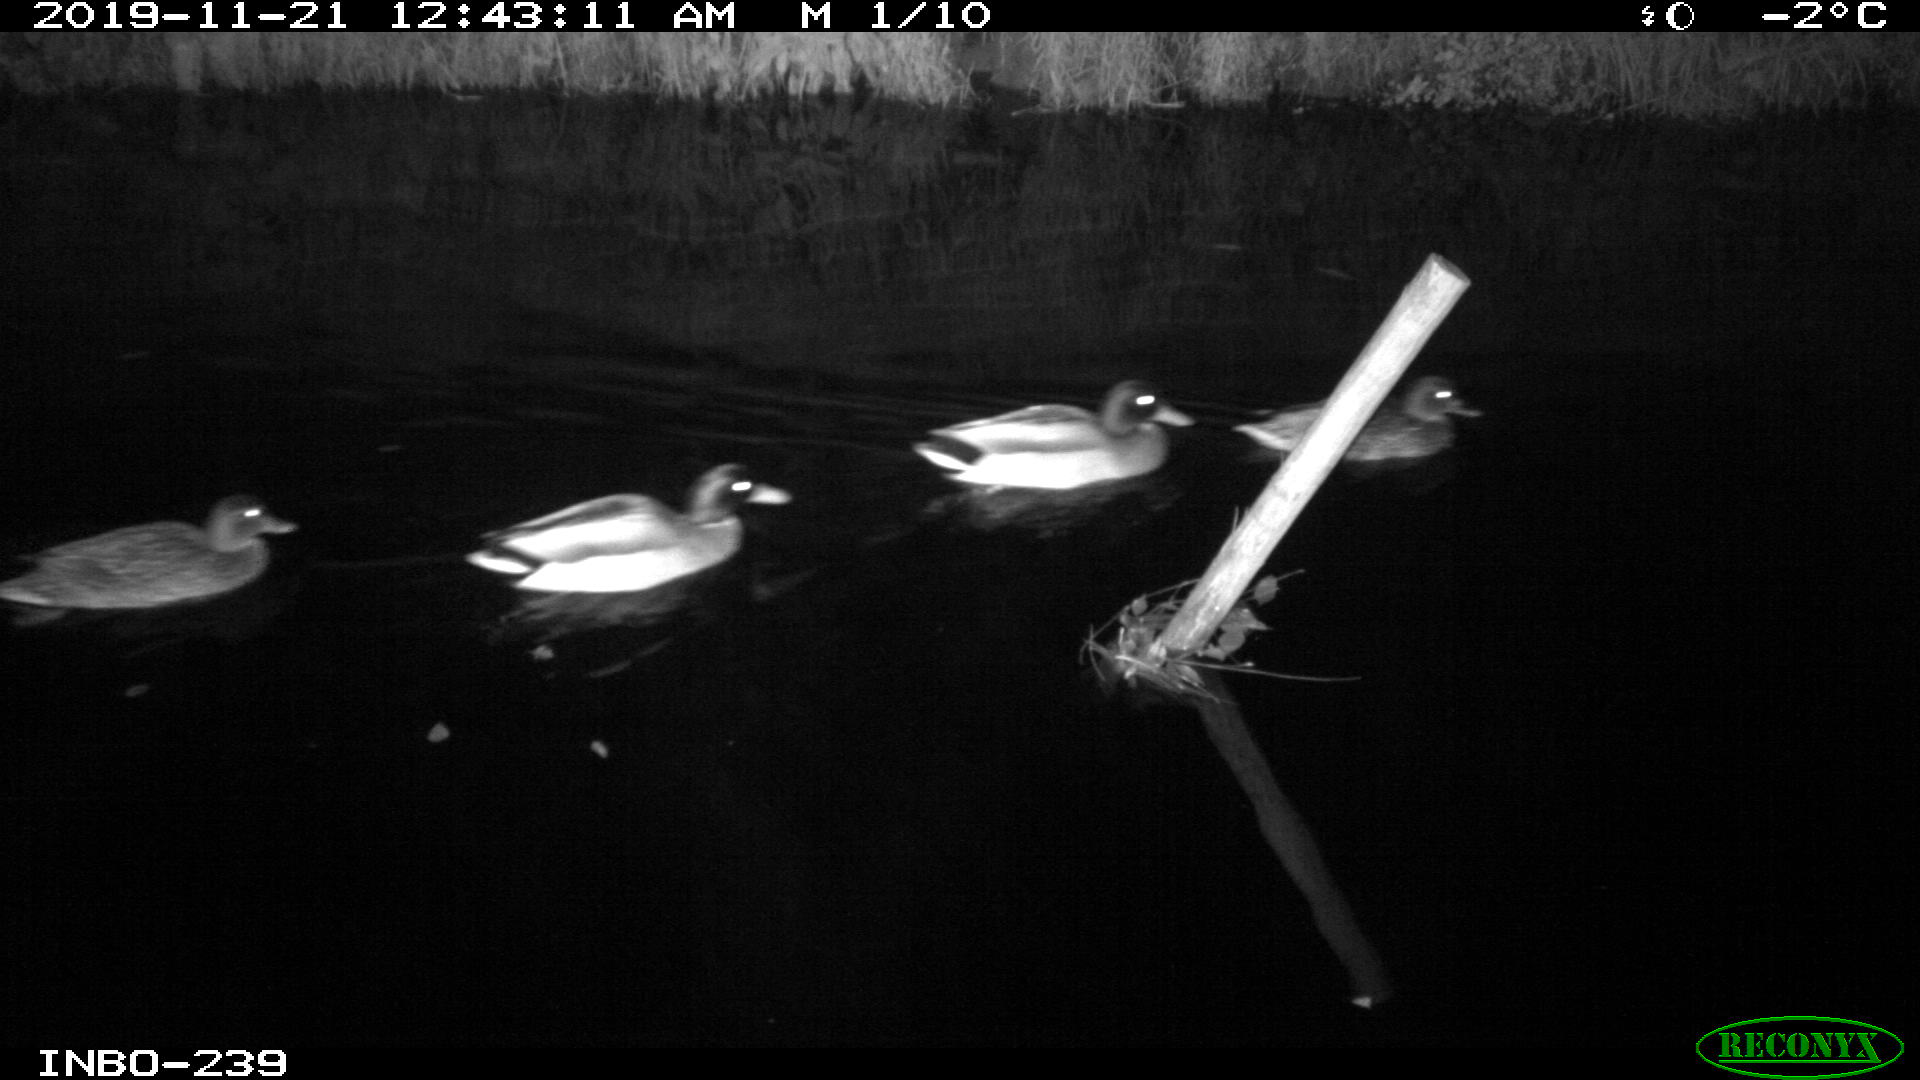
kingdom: Animalia
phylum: Chordata
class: Aves
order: Anseriformes
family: Anatidae
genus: Anas
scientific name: Anas platyrhynchos
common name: Mallard
